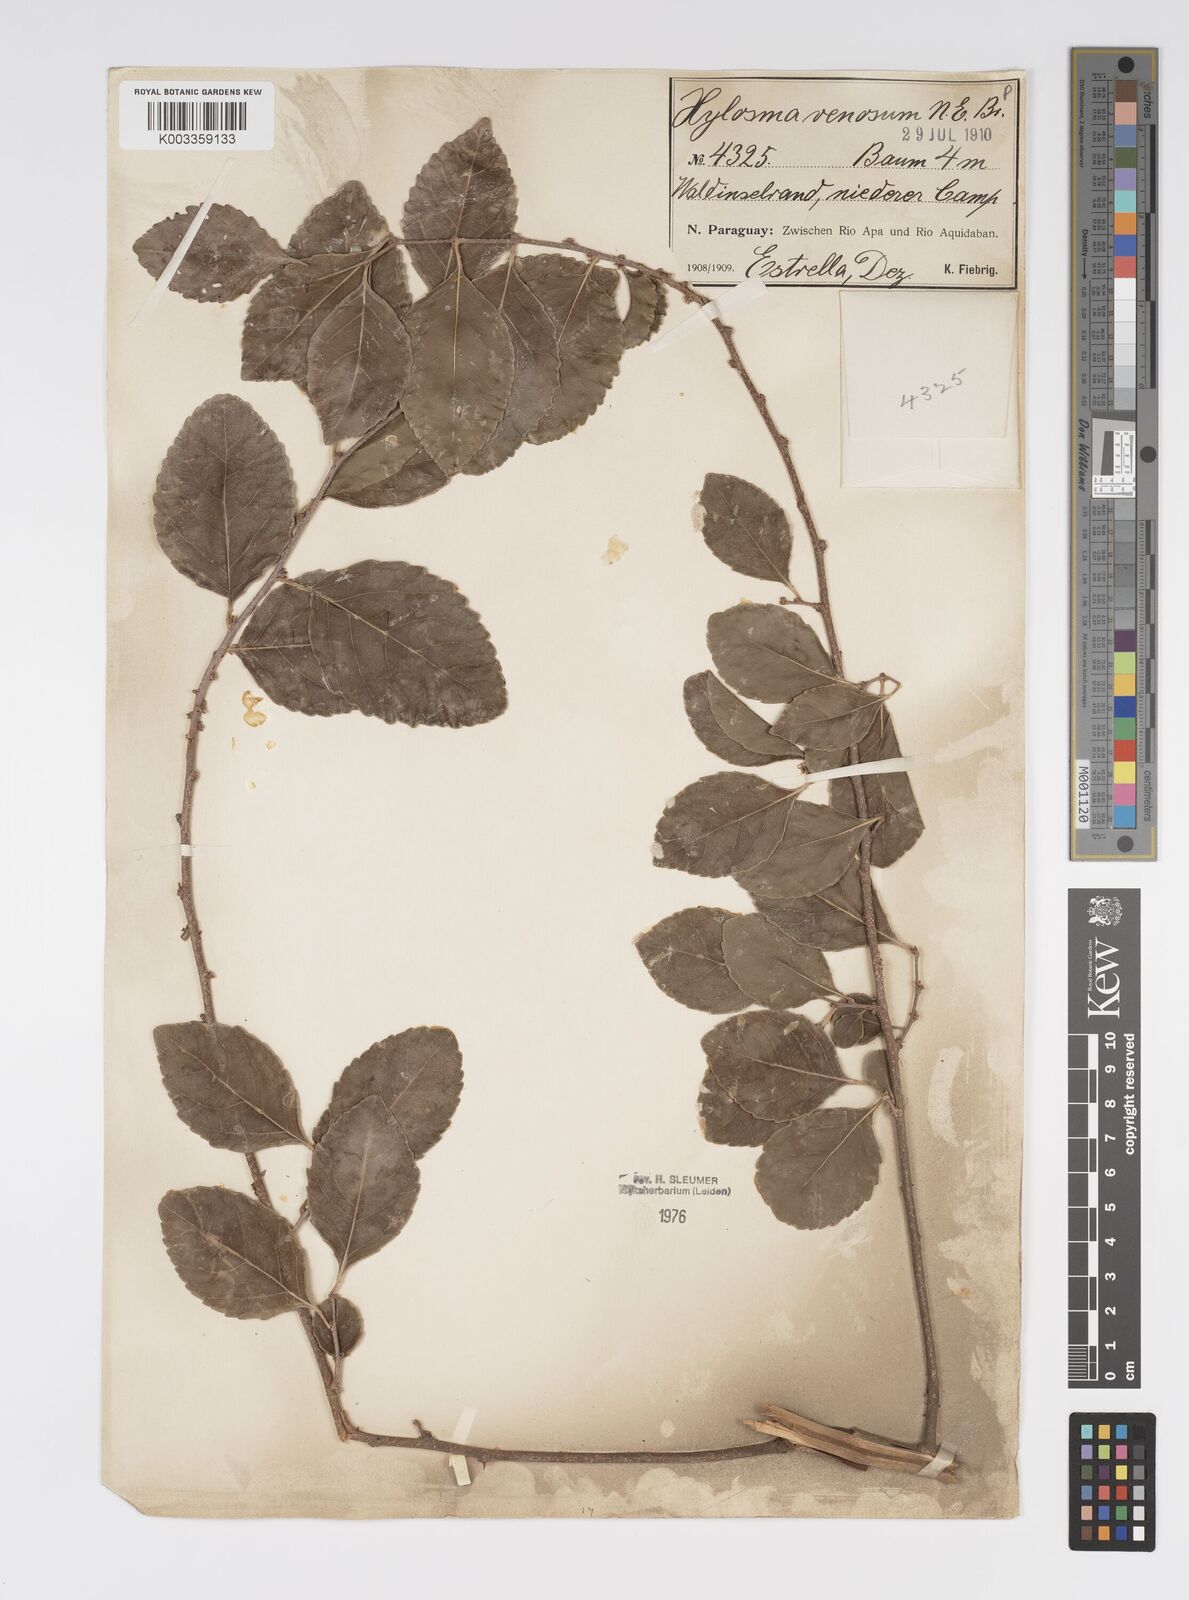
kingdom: Plantae
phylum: Tracheophyta
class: Magnoliopsida
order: Malpighiales
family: Salicaceae
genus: Xylosma
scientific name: Xylosma venosa
